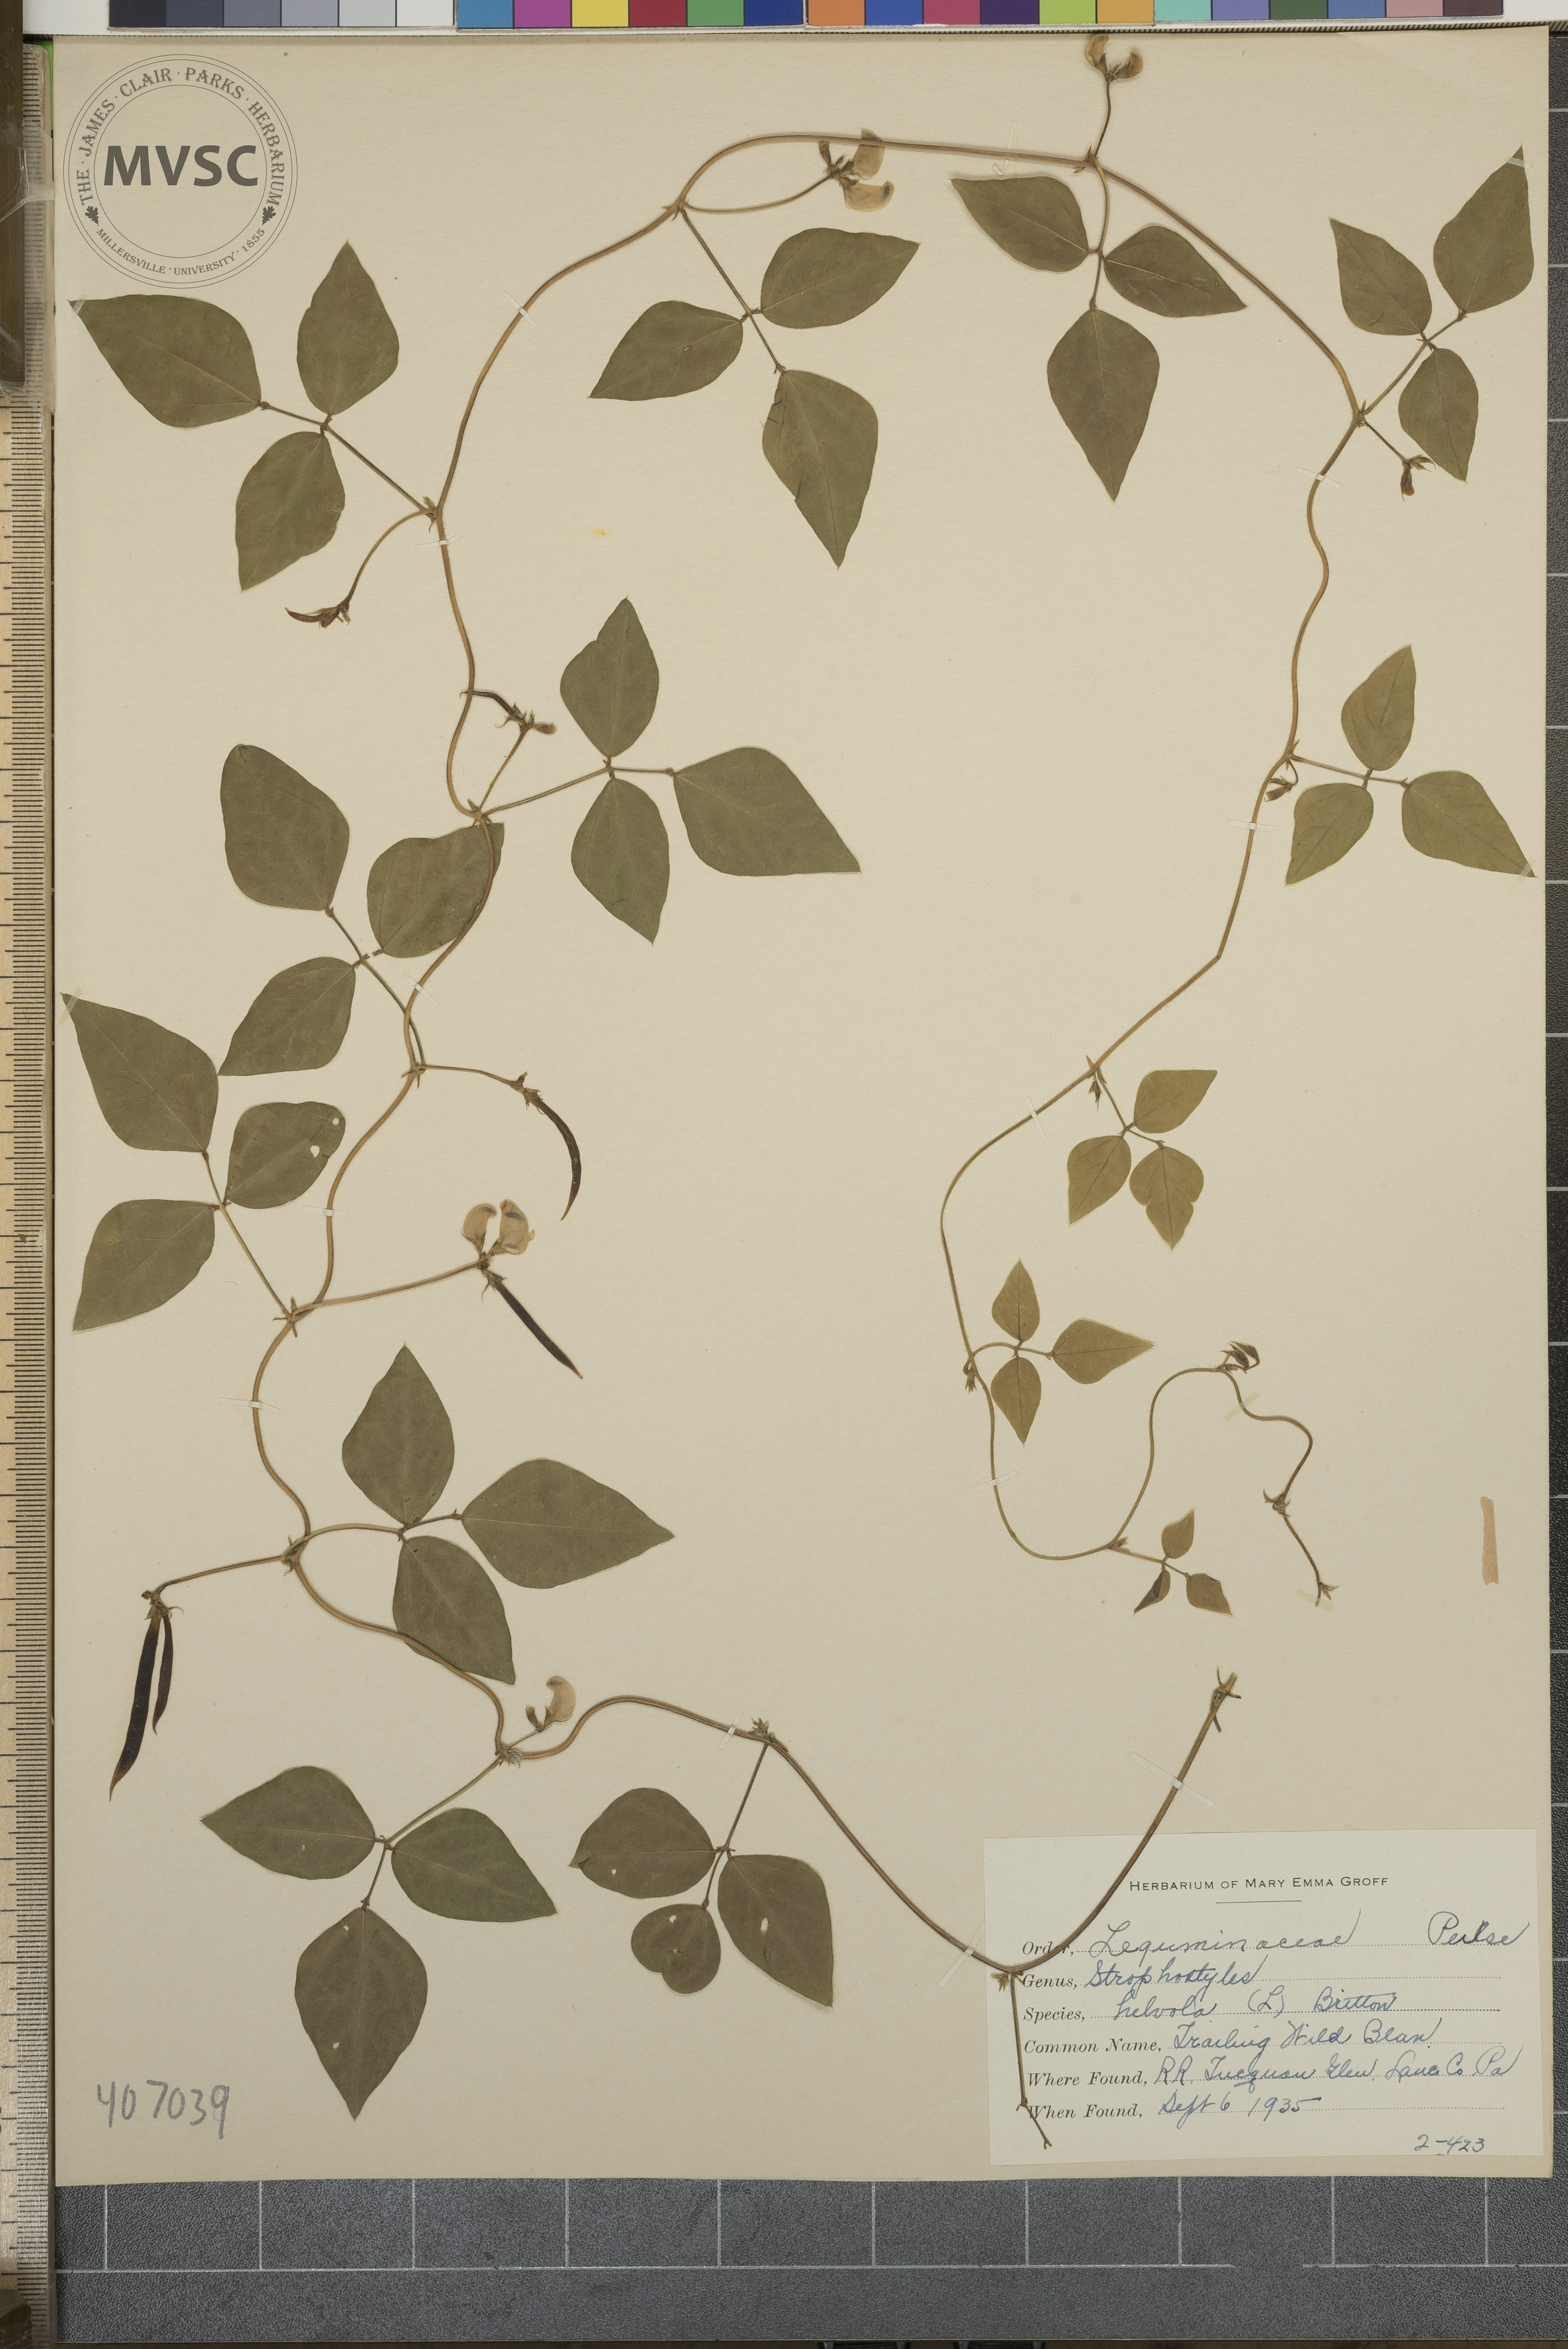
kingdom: Plantae
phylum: Tracheophyta
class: Magnoliopsida
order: Fabales
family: Fabaceae
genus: Strophostyles
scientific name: Strophostyles helvola
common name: Trailing Wild Bean
